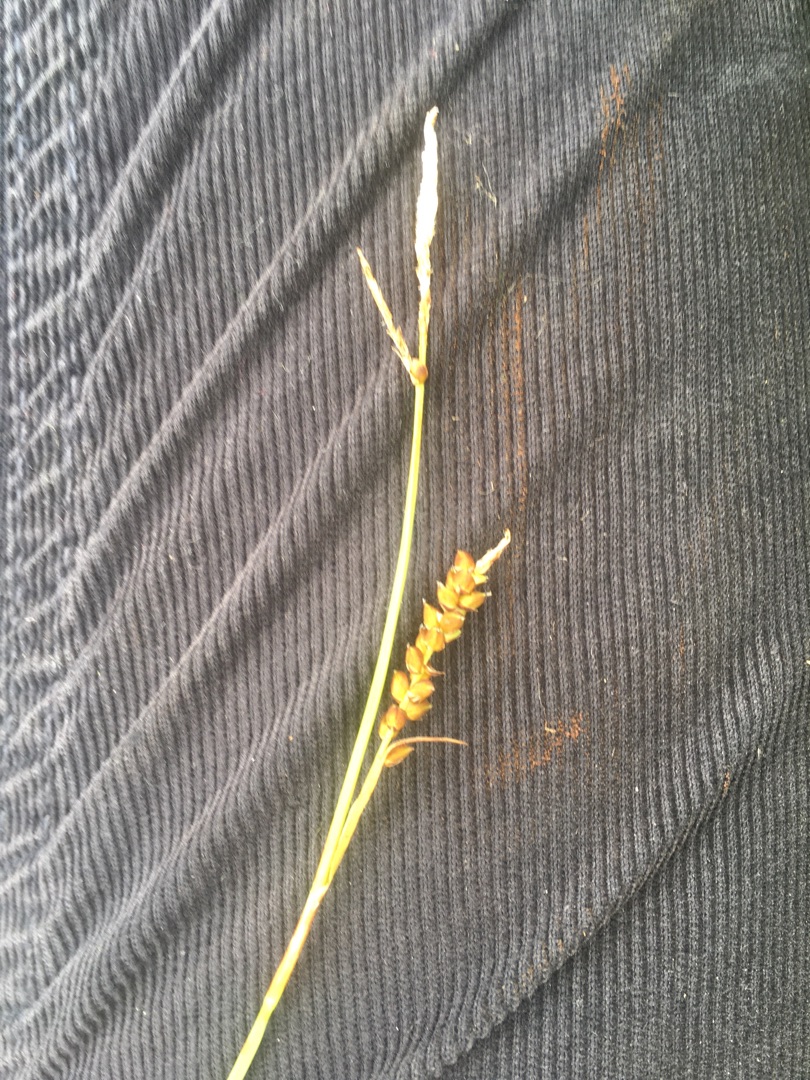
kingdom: Plantae
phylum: Tracheophyta
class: Liliopsida
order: Poales
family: Cyperaceae
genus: Carex
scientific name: Carex panicea
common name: Hirse-star
